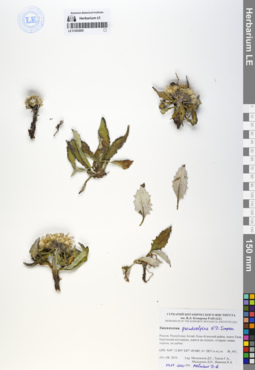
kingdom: Plantae
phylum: Tracheophyta
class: Magnoliopsida
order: Asterales
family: Asteraceae
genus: Saussurea
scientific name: Saussurea pseudoalpina
